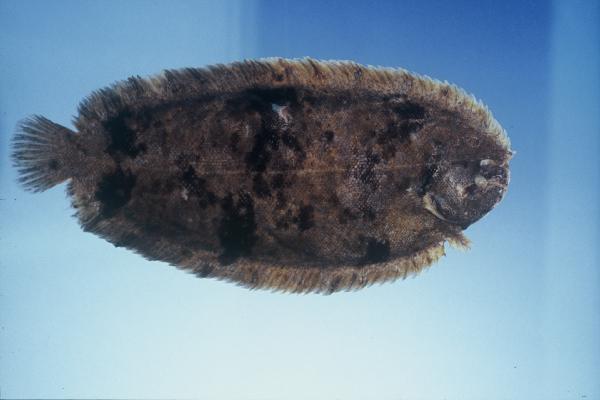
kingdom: Animalia
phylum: Chordata
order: Pleuronectiformes
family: Soleidae
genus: Barnardichthys
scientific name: Barnardichthys fulvomarginata
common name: Lemon sole
